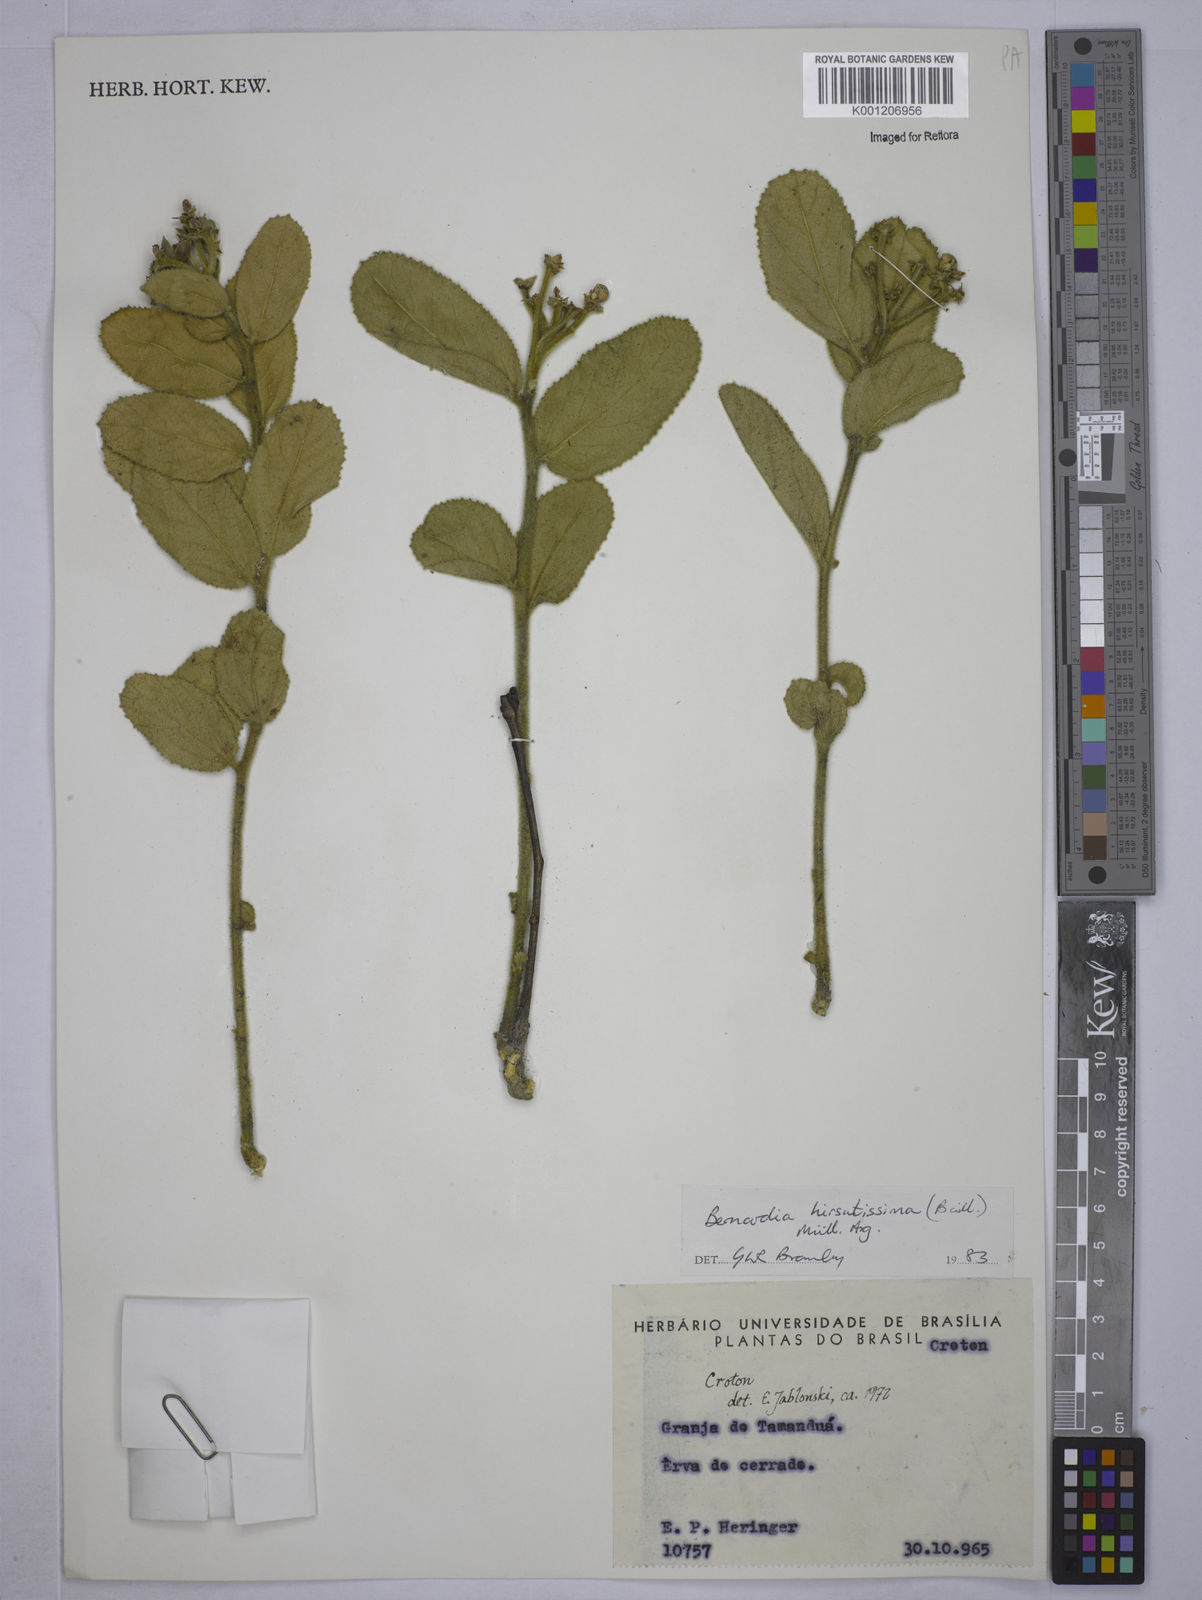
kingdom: Plantae
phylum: Tracheophyta
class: Magnoliopsida
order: Malpighiales
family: Euphorbiaceae
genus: Bernardia
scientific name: Bernardia
